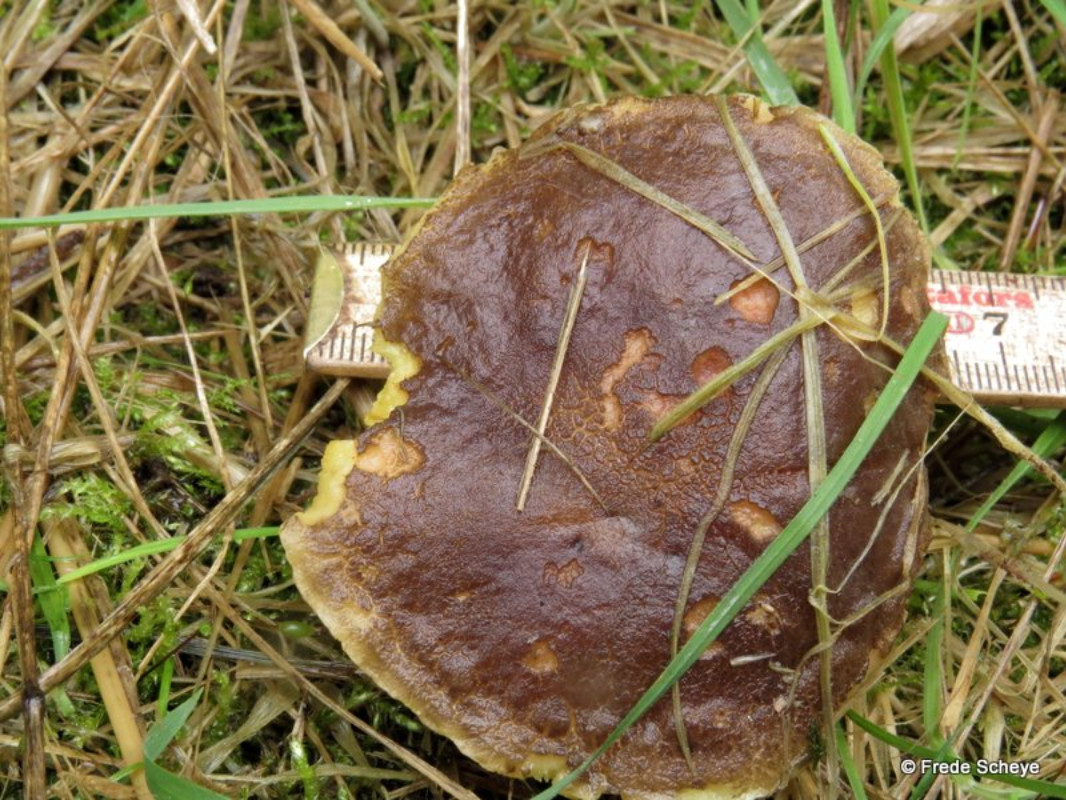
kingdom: Fungi
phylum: Basidiomycota
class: Agaricomycetes
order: Boletales
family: Boletaceae
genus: Xerocomellus
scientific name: Xerocomellus pruinatus
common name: dugget rørhat
